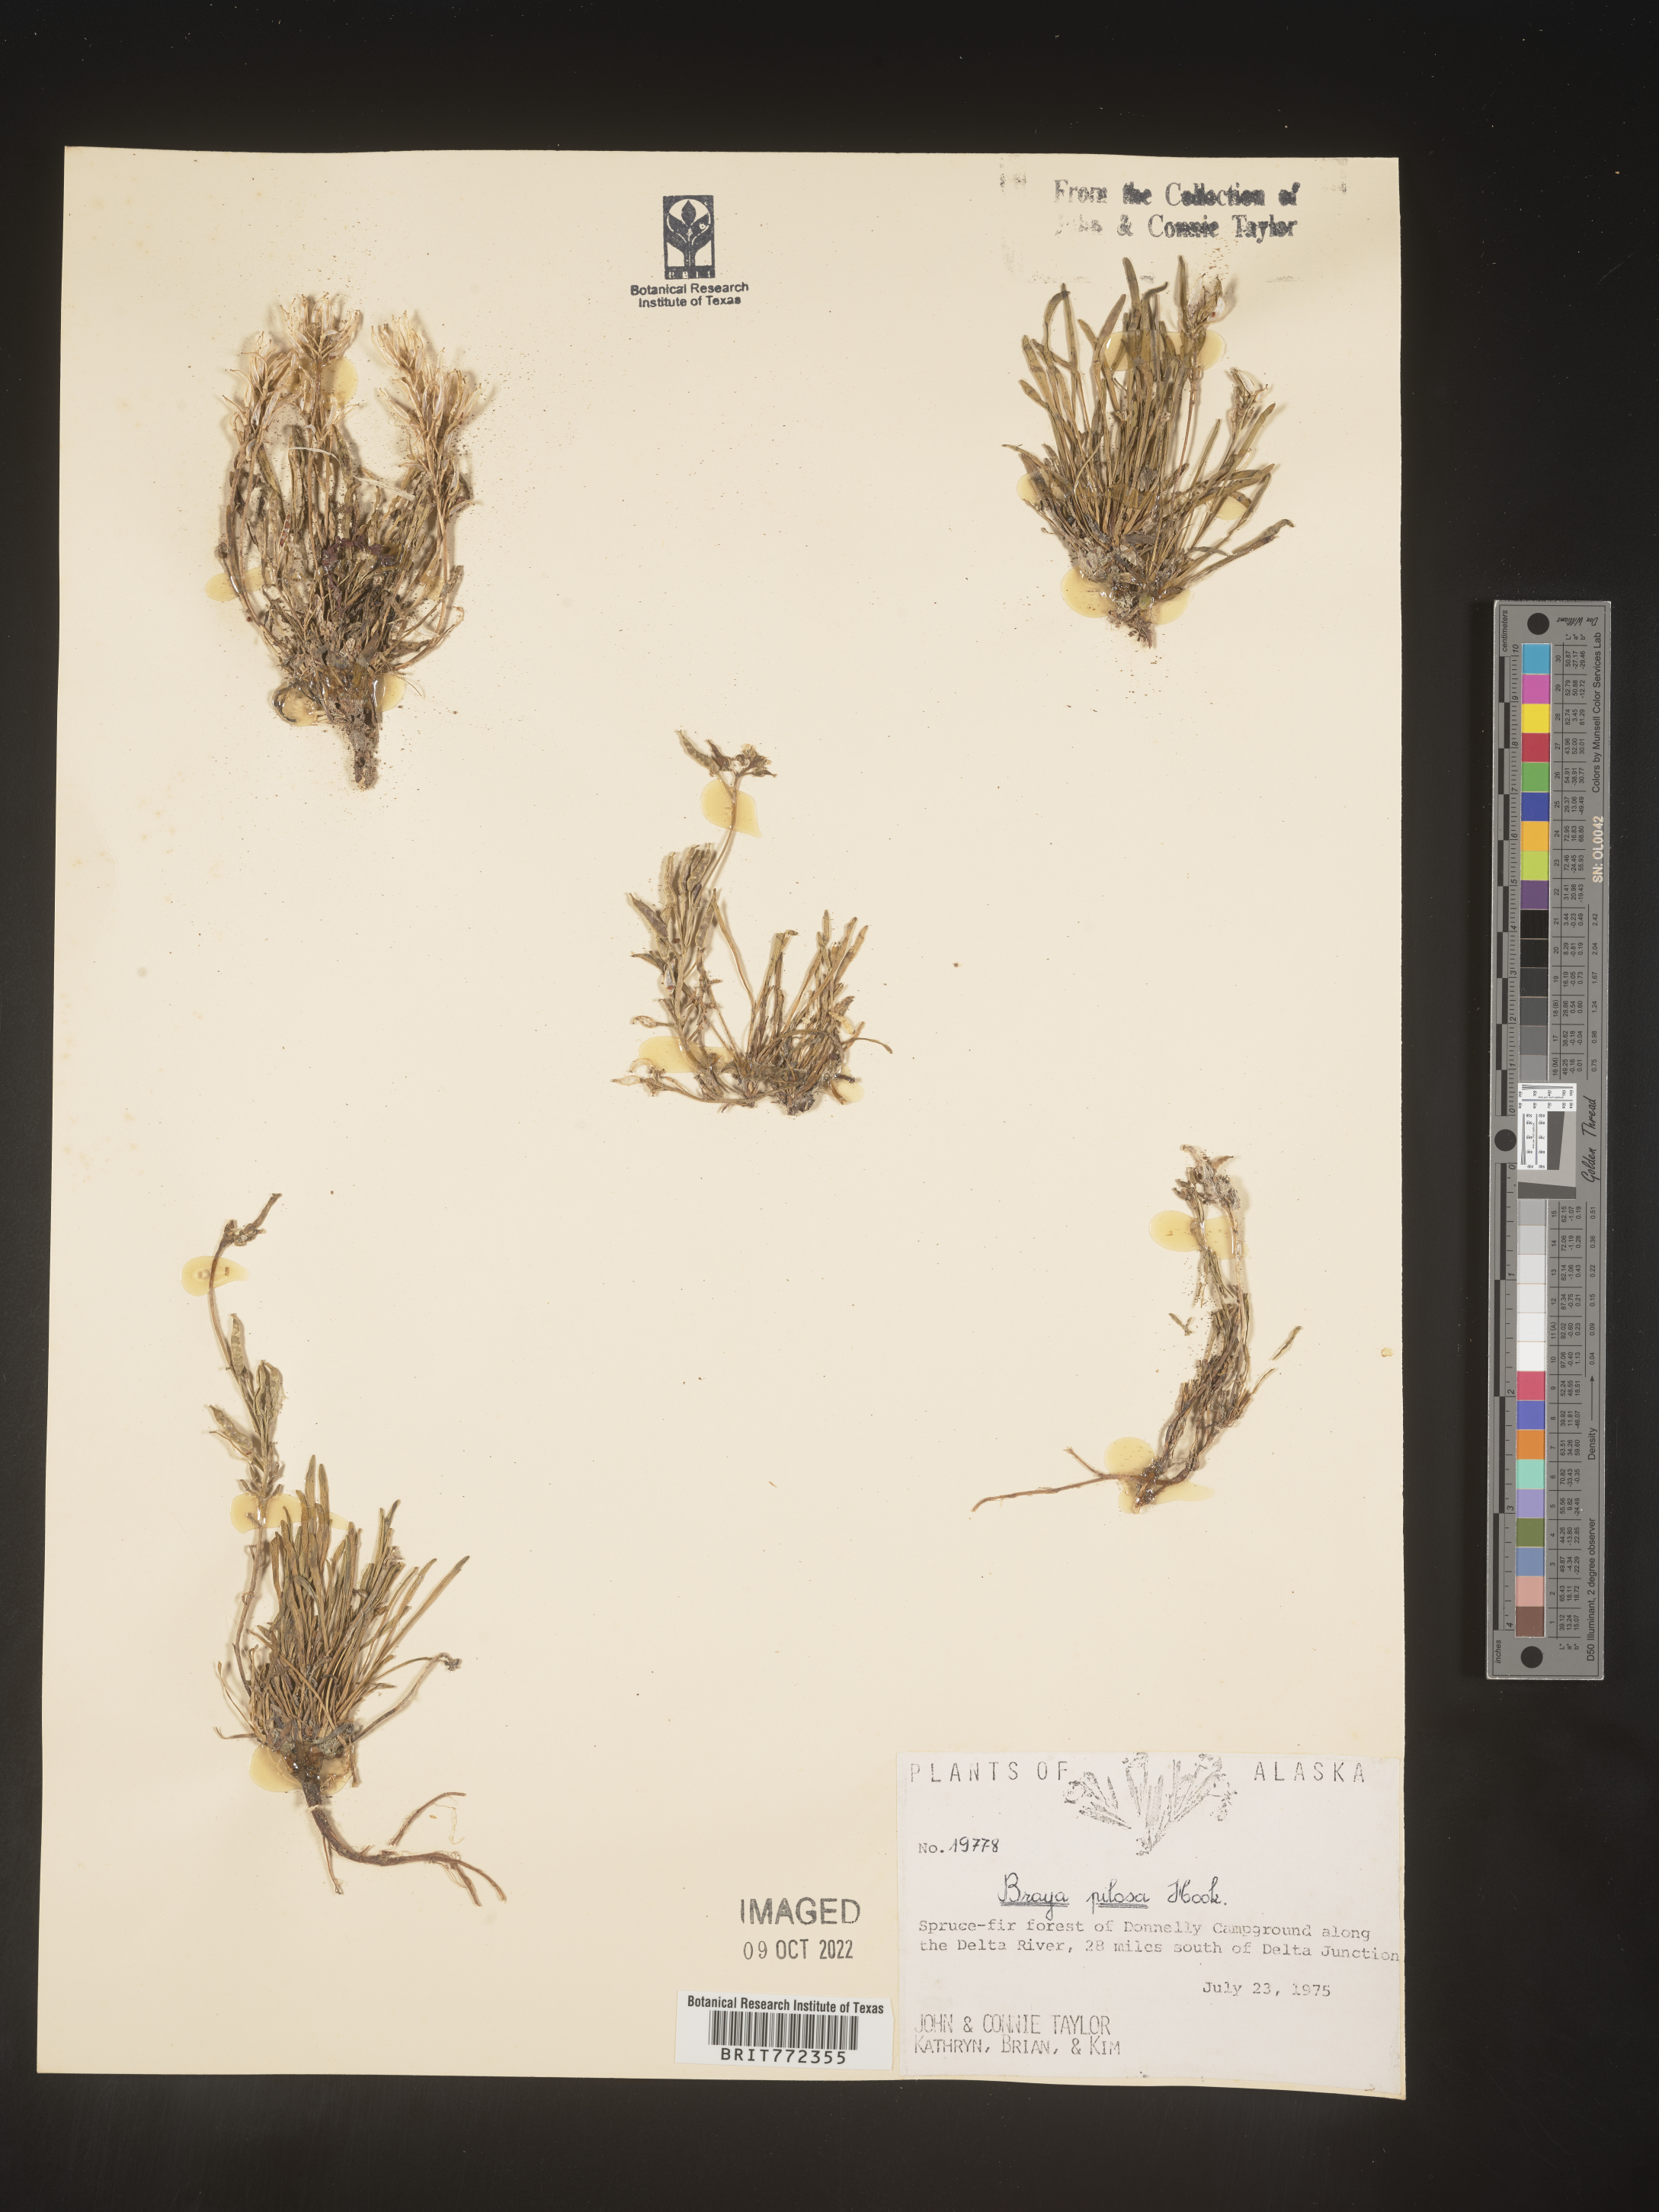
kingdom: Plantae
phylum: Tracheophyta
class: Magnoliopsida
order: Brassicales
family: Brassicaceae
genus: Braya
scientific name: Braya
